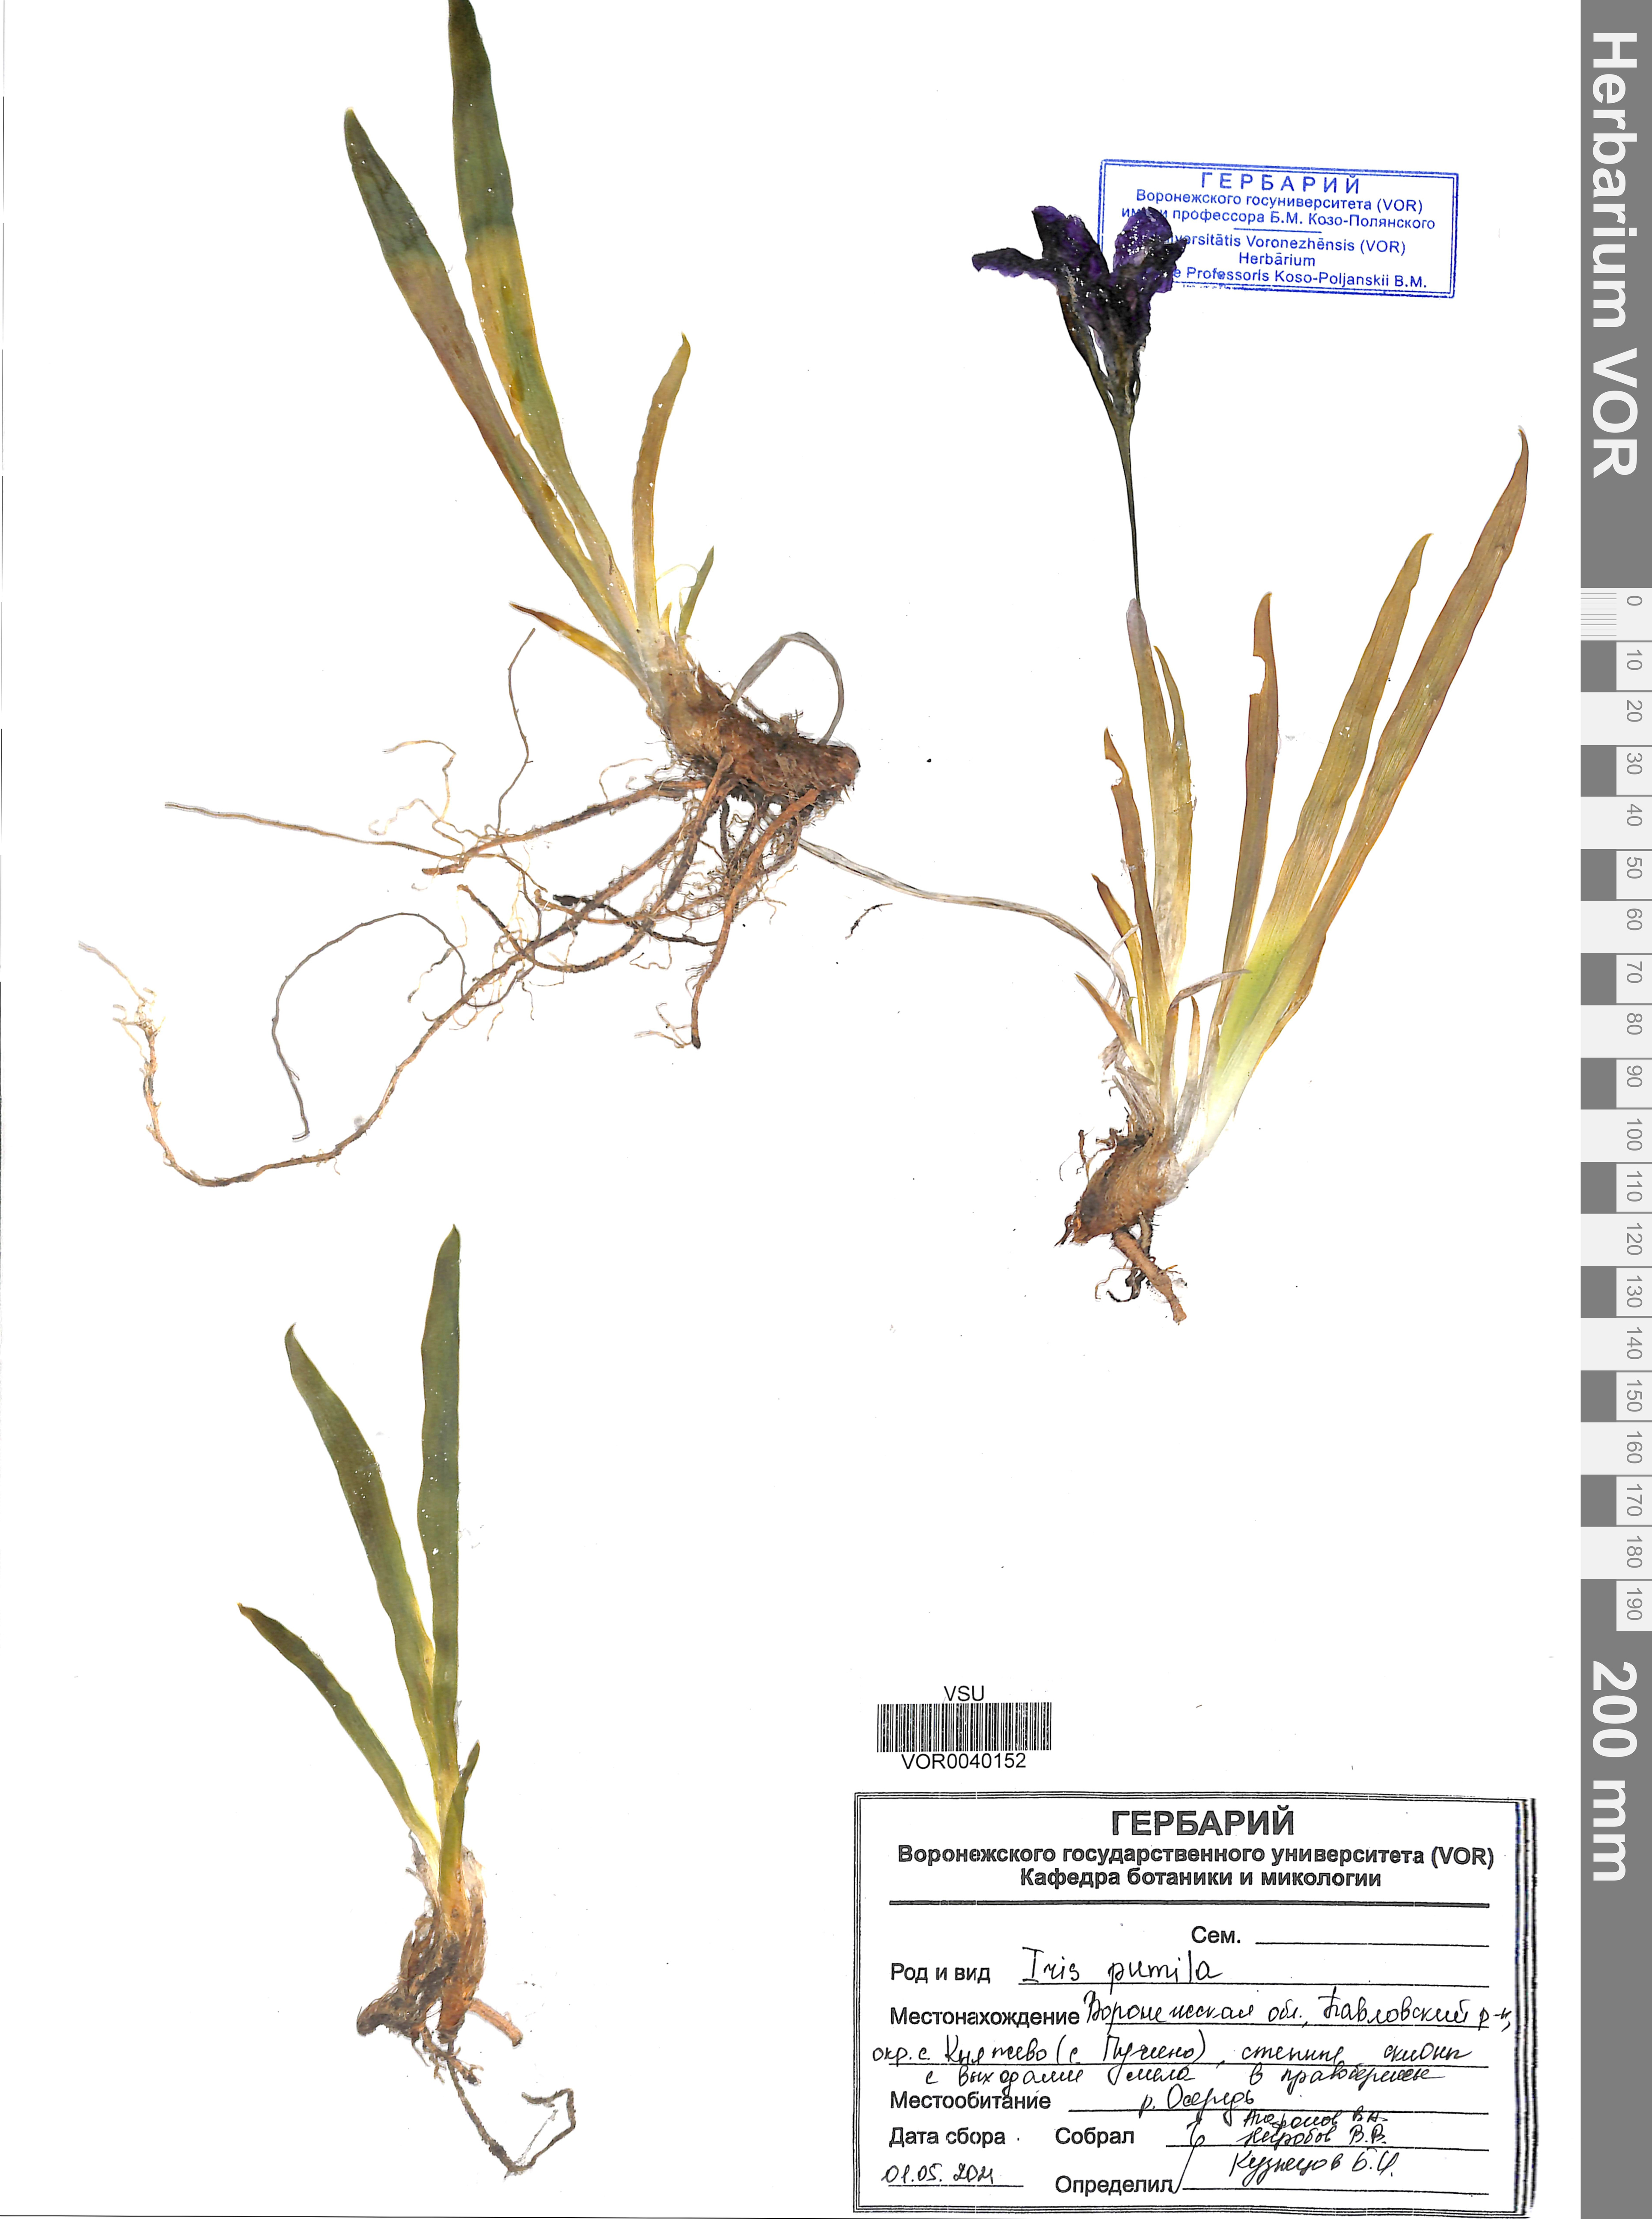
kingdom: Plantae
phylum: Tracheophyta
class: Liliopsida
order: Asparagales
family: Iridaceae
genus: Iris
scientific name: Iris pumila
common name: Dwarf iris
